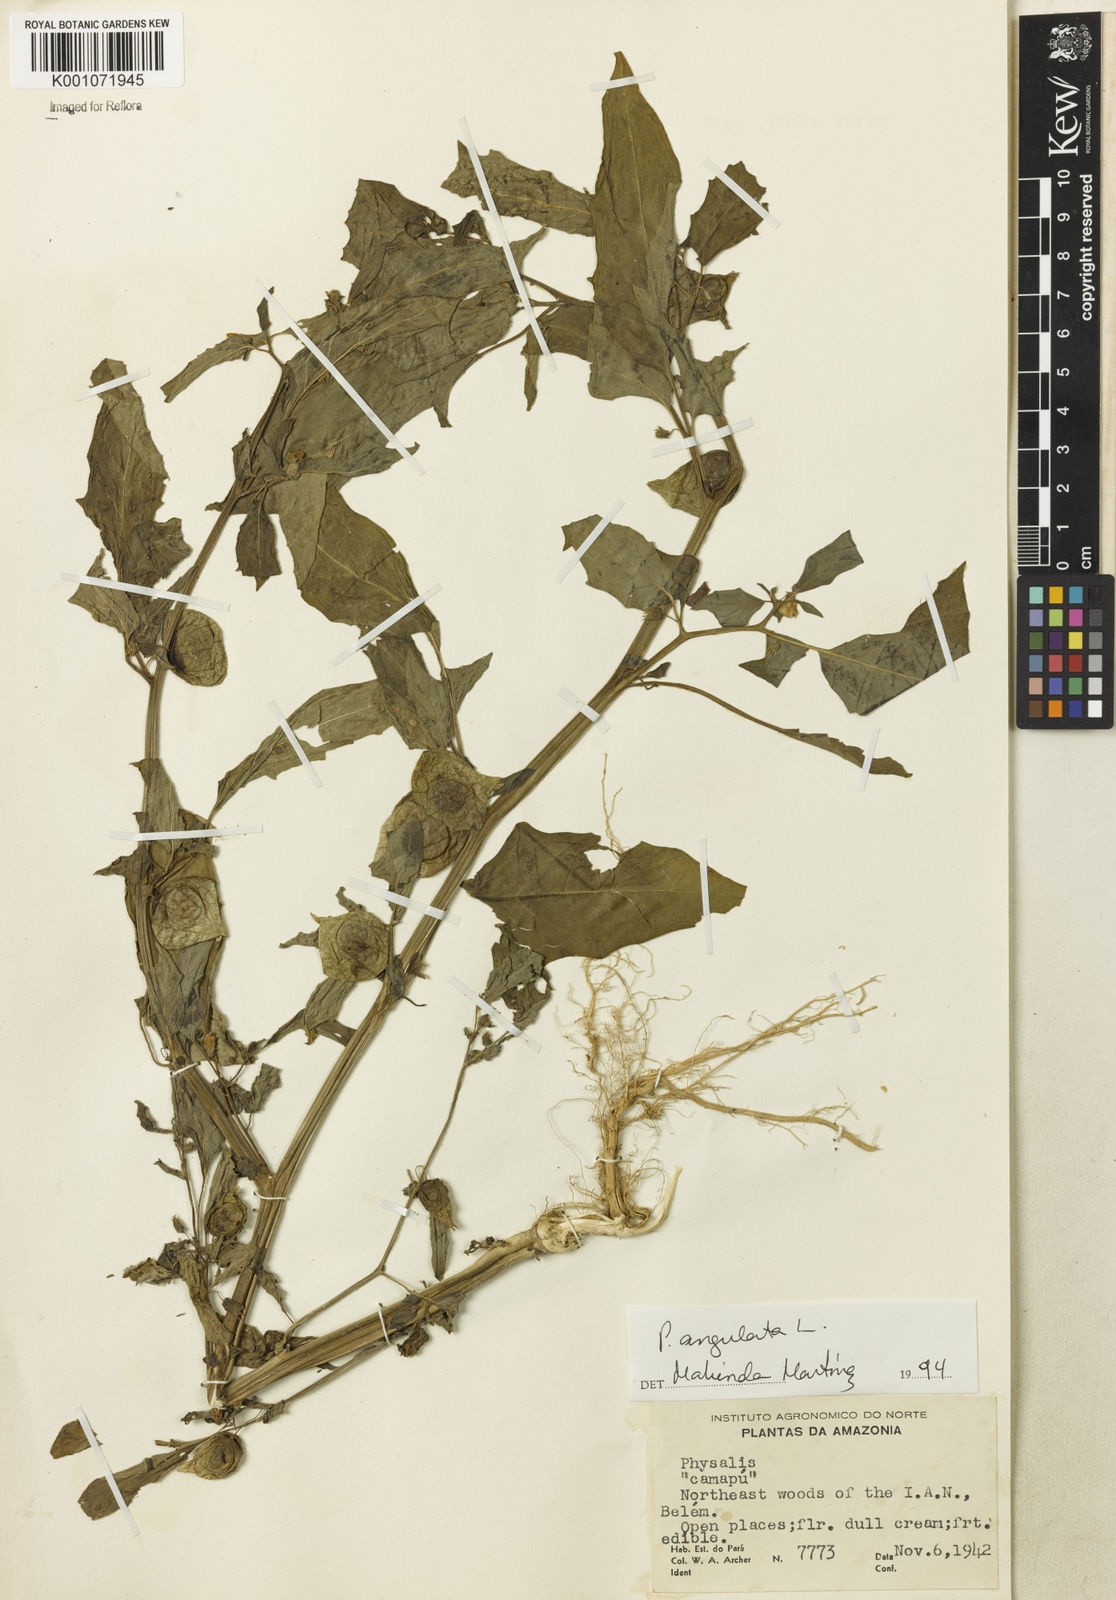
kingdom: Plantae
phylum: Tracheophyta
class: Magnoliopsida
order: Solanales
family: Solanaceae
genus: Physalis
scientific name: Physalis angulata
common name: Angular winter-cherry
